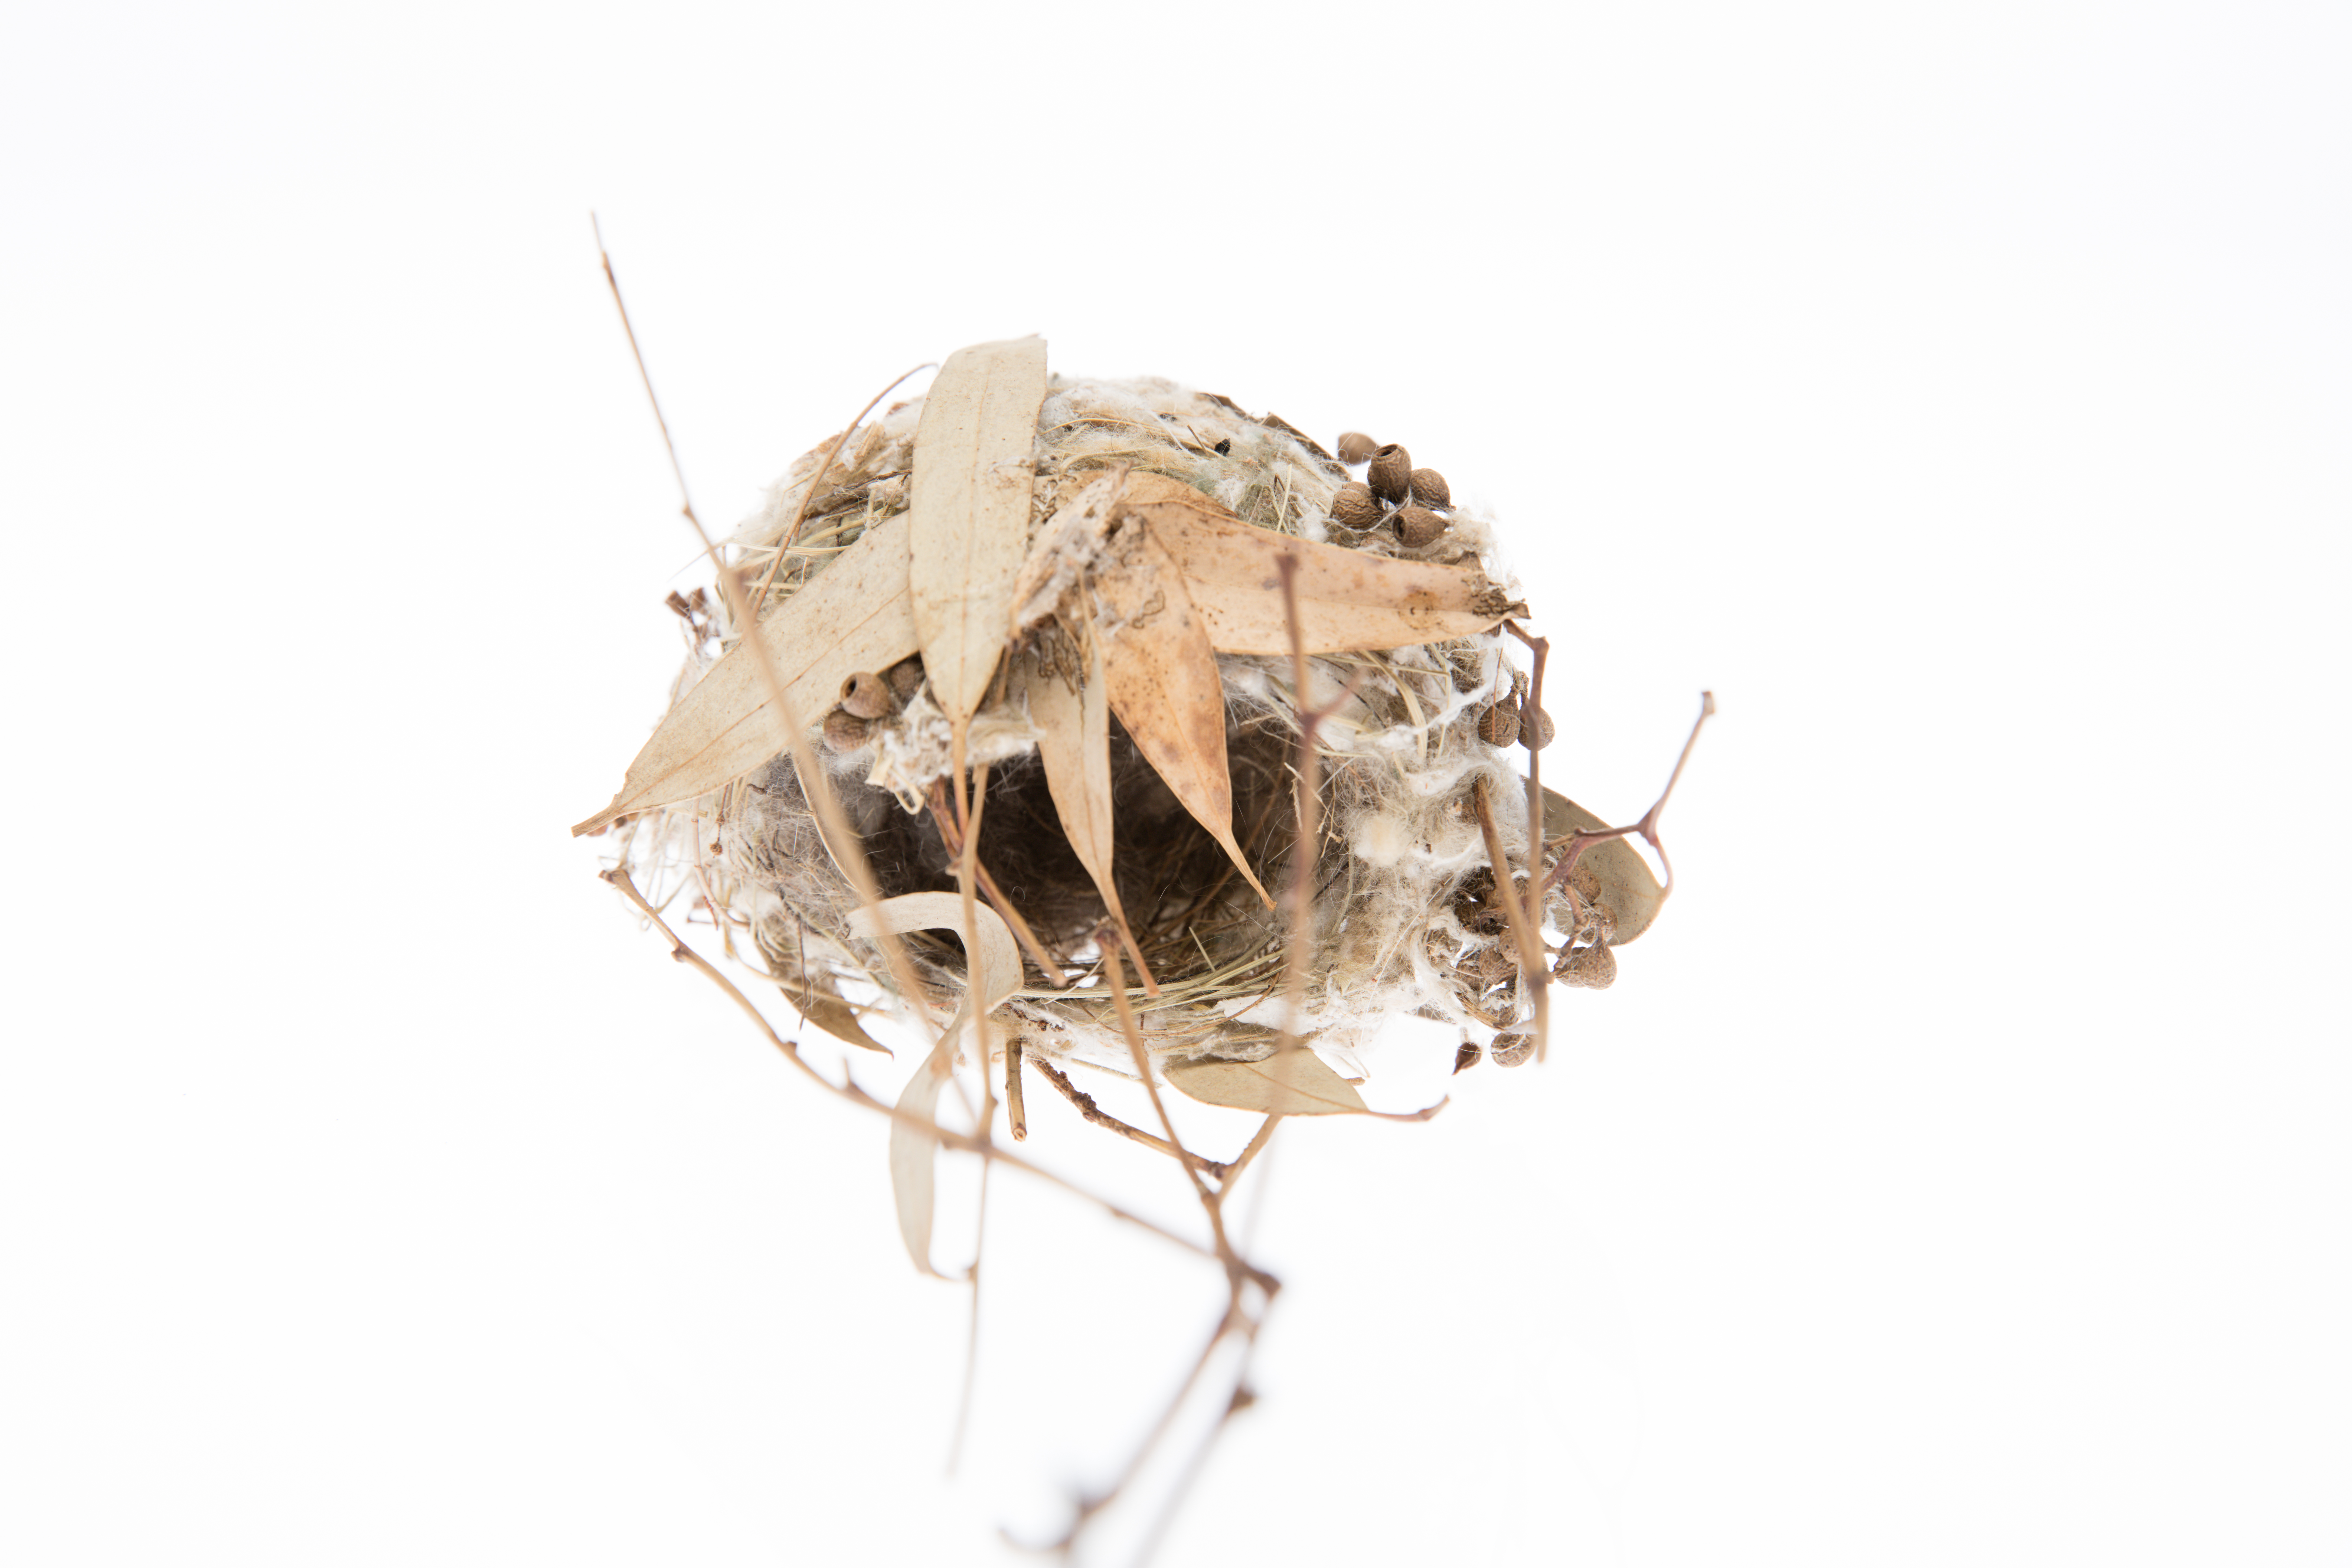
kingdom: Animalia
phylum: Chordata
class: Aves
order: Passeriformes
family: Meliphagidae
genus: Lichmera
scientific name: Lichmera indistincta
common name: Brown honeyeater
